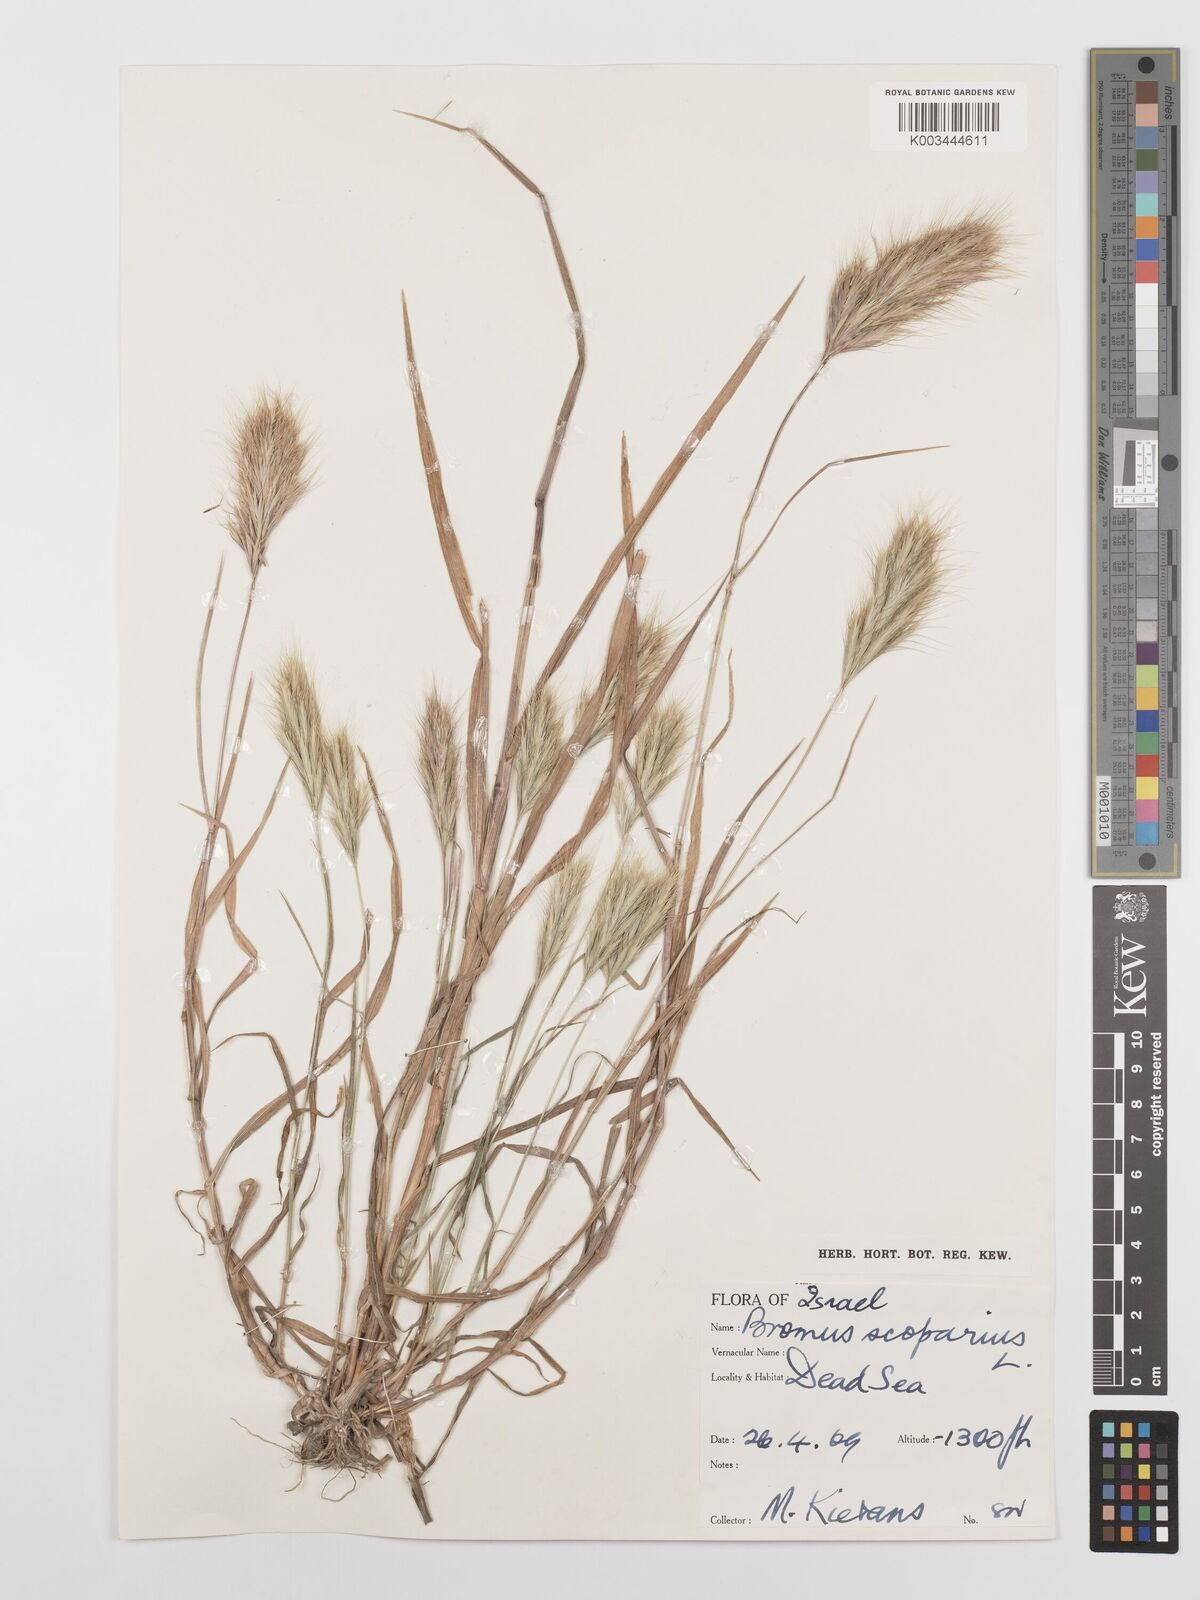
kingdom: Plantae
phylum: Tracheophyta
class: Liliopsida
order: Poales
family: Poaceae
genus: Bromus
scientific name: Bromus scoparius
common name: Broom brome
